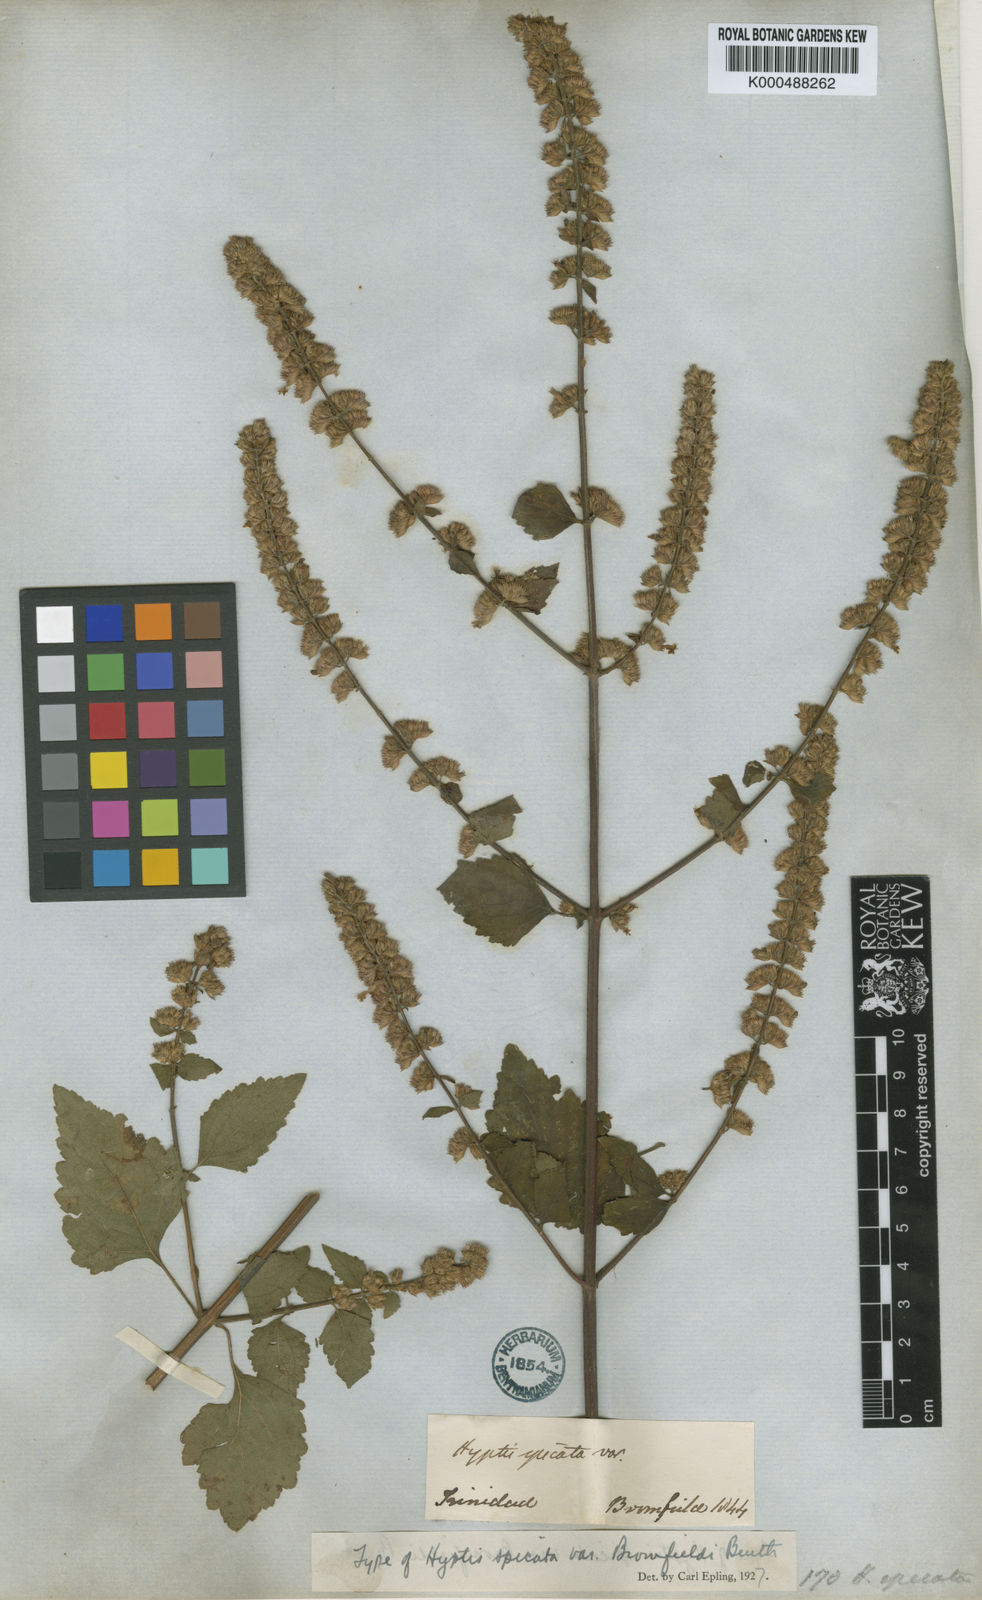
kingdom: Plantae
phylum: Tracheophyta
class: Magnoliopsida
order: Lamiales
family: Lamiaceae
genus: Cantinoa
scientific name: Cantinoa mutabilis
